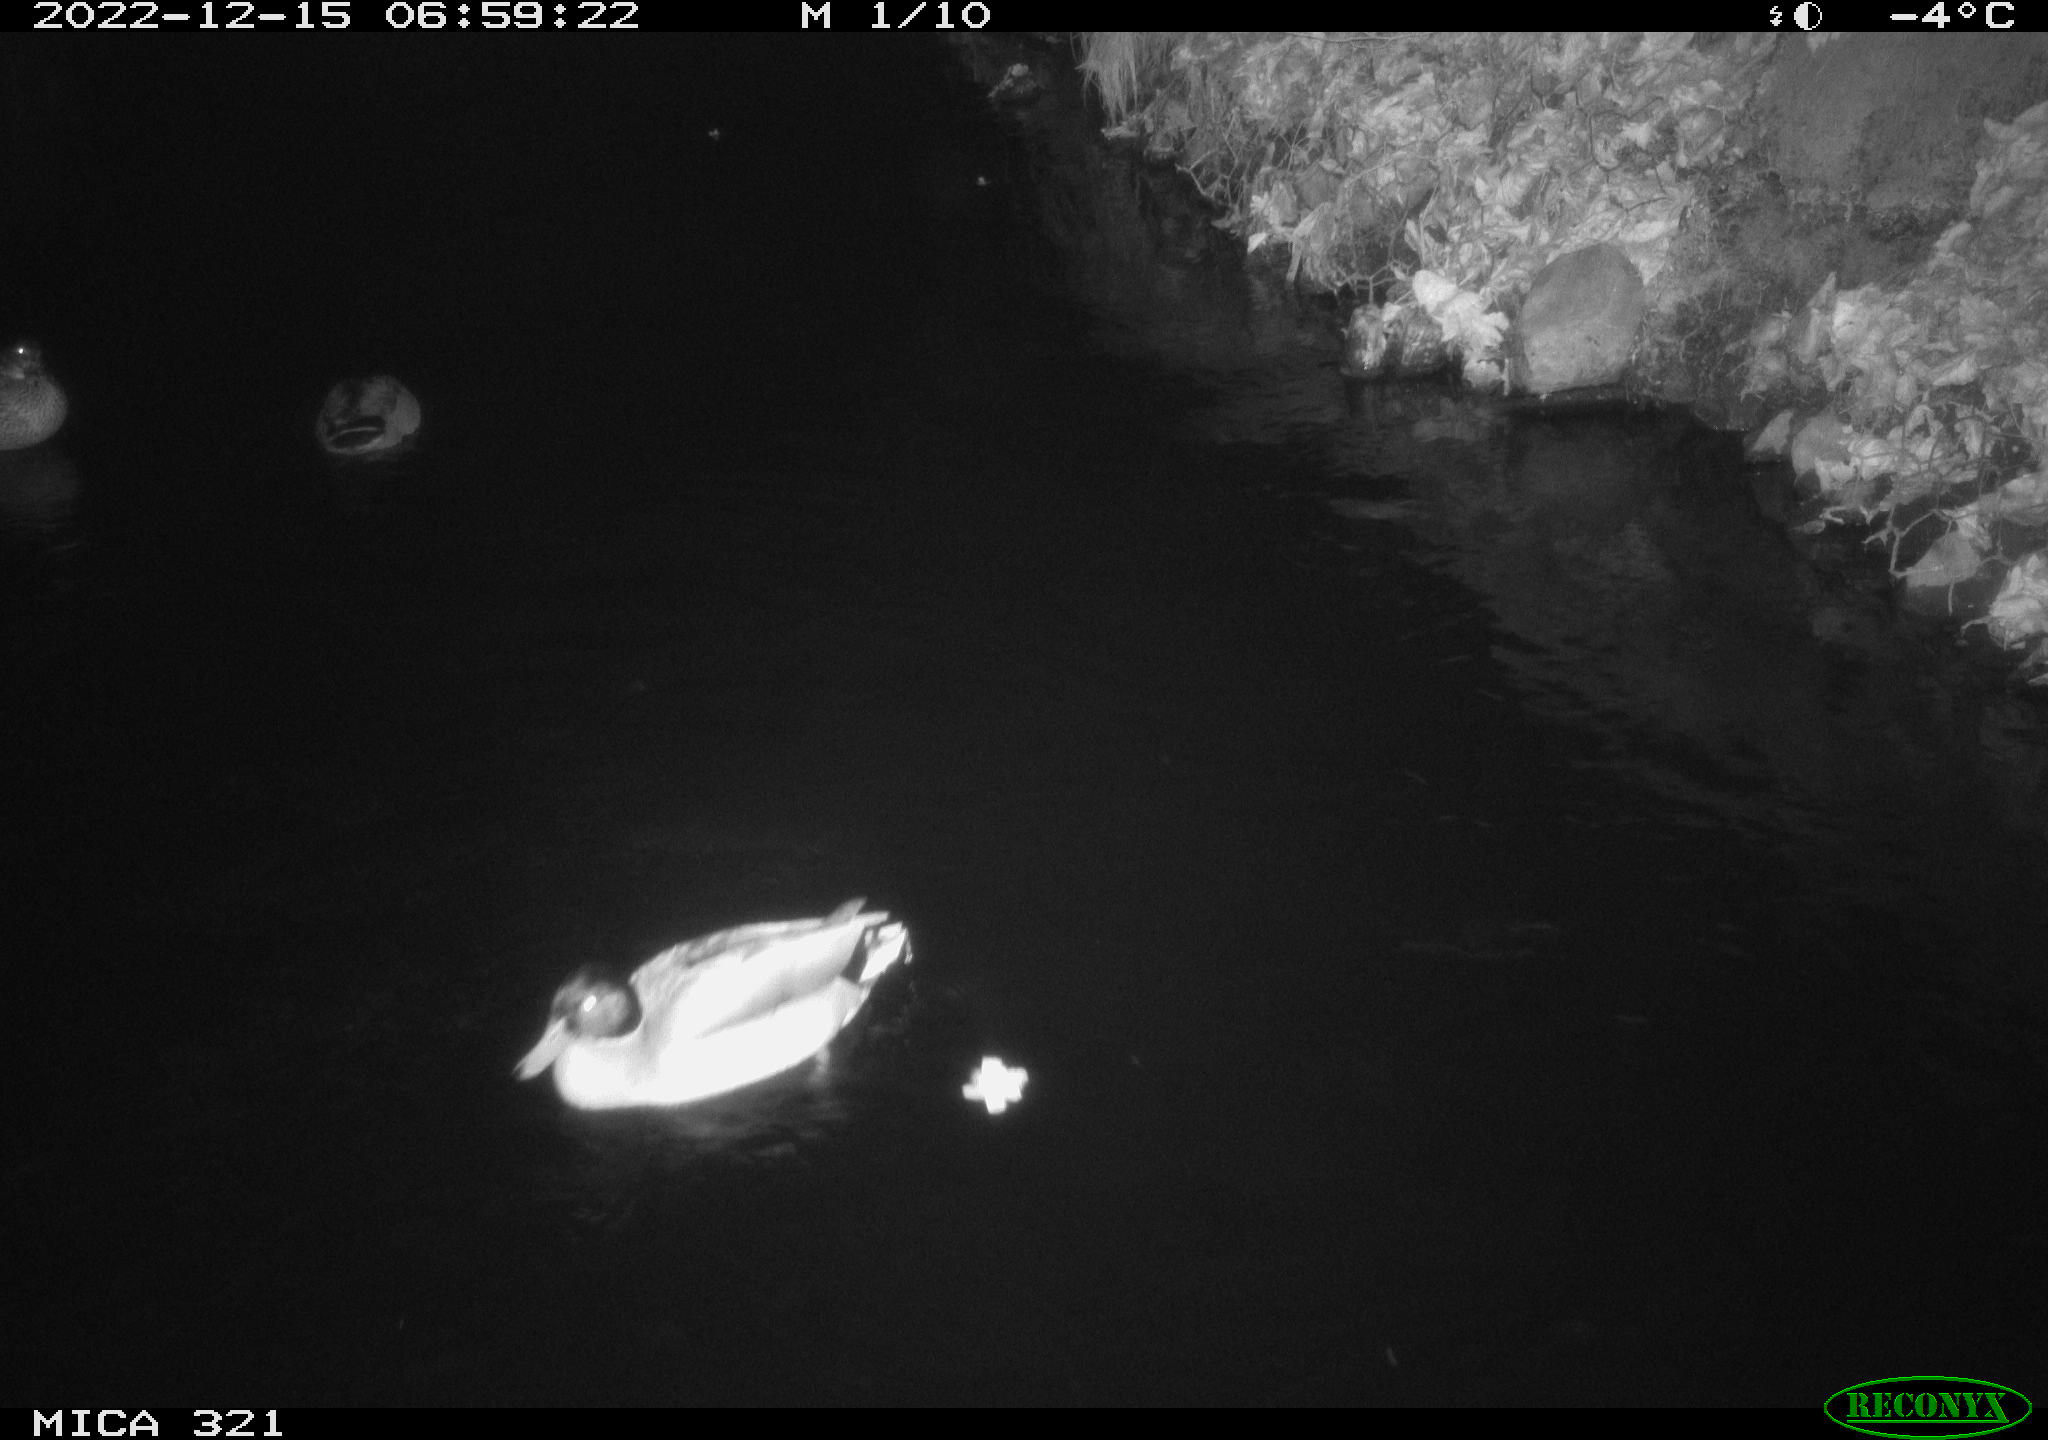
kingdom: Animalia
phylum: Chordata
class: Aves
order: Anseriformes
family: Anatidae
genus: Anas
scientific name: Anas
